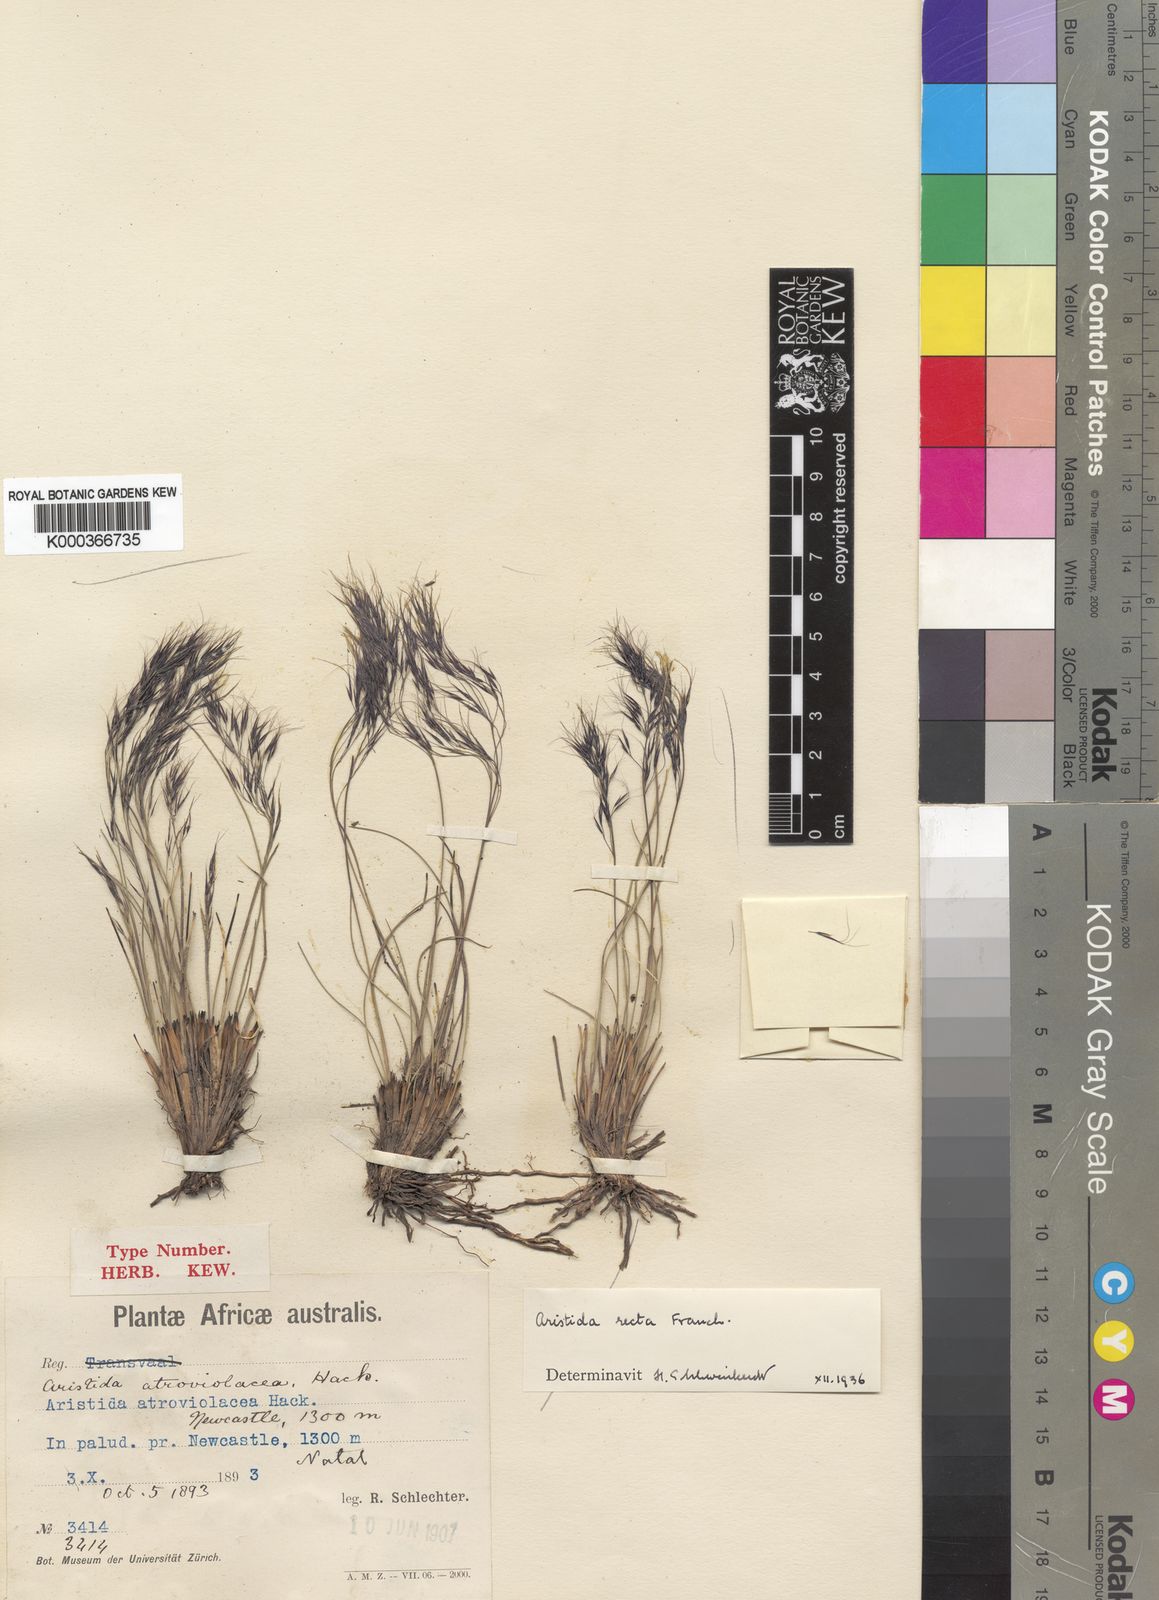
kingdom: Plantae
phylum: Tracheophyta
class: Liliopsida
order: Poales
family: Poaceae
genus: Aristida
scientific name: Aristida recta
